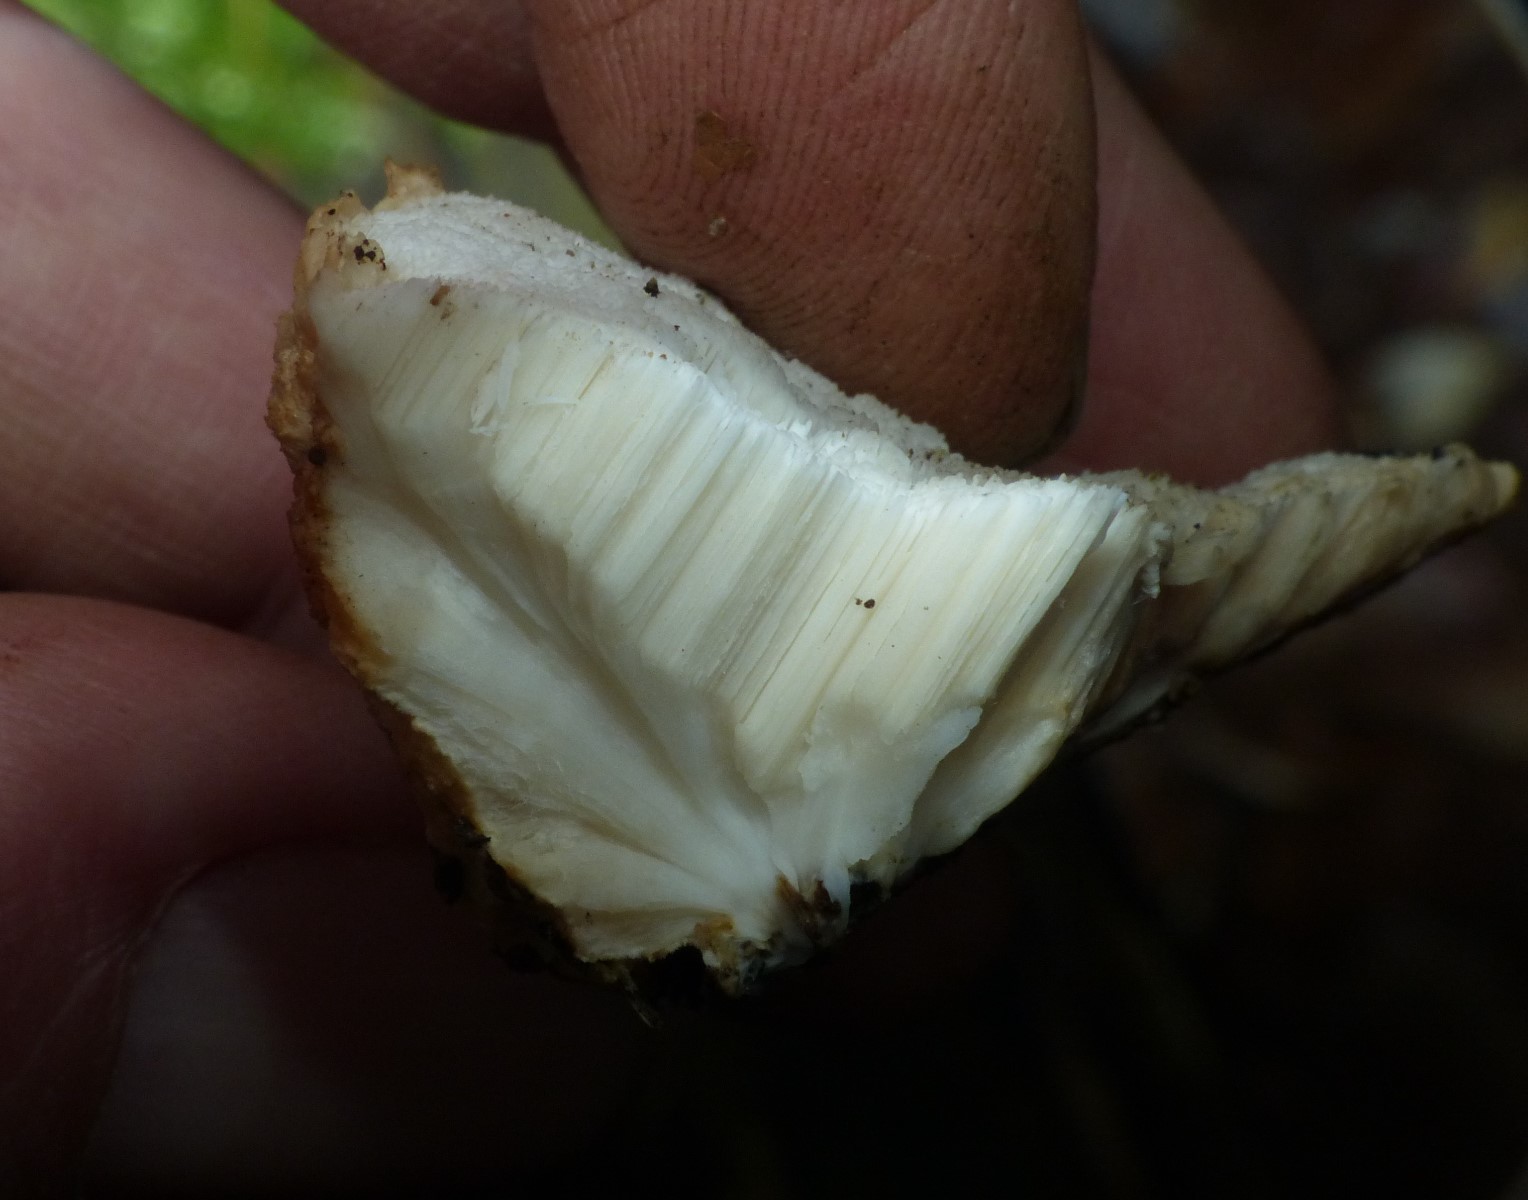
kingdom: Fungi
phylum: Basidiomycota
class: Agaricomycetes
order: Polyporales
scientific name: Polyporales
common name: poresvampordenen
